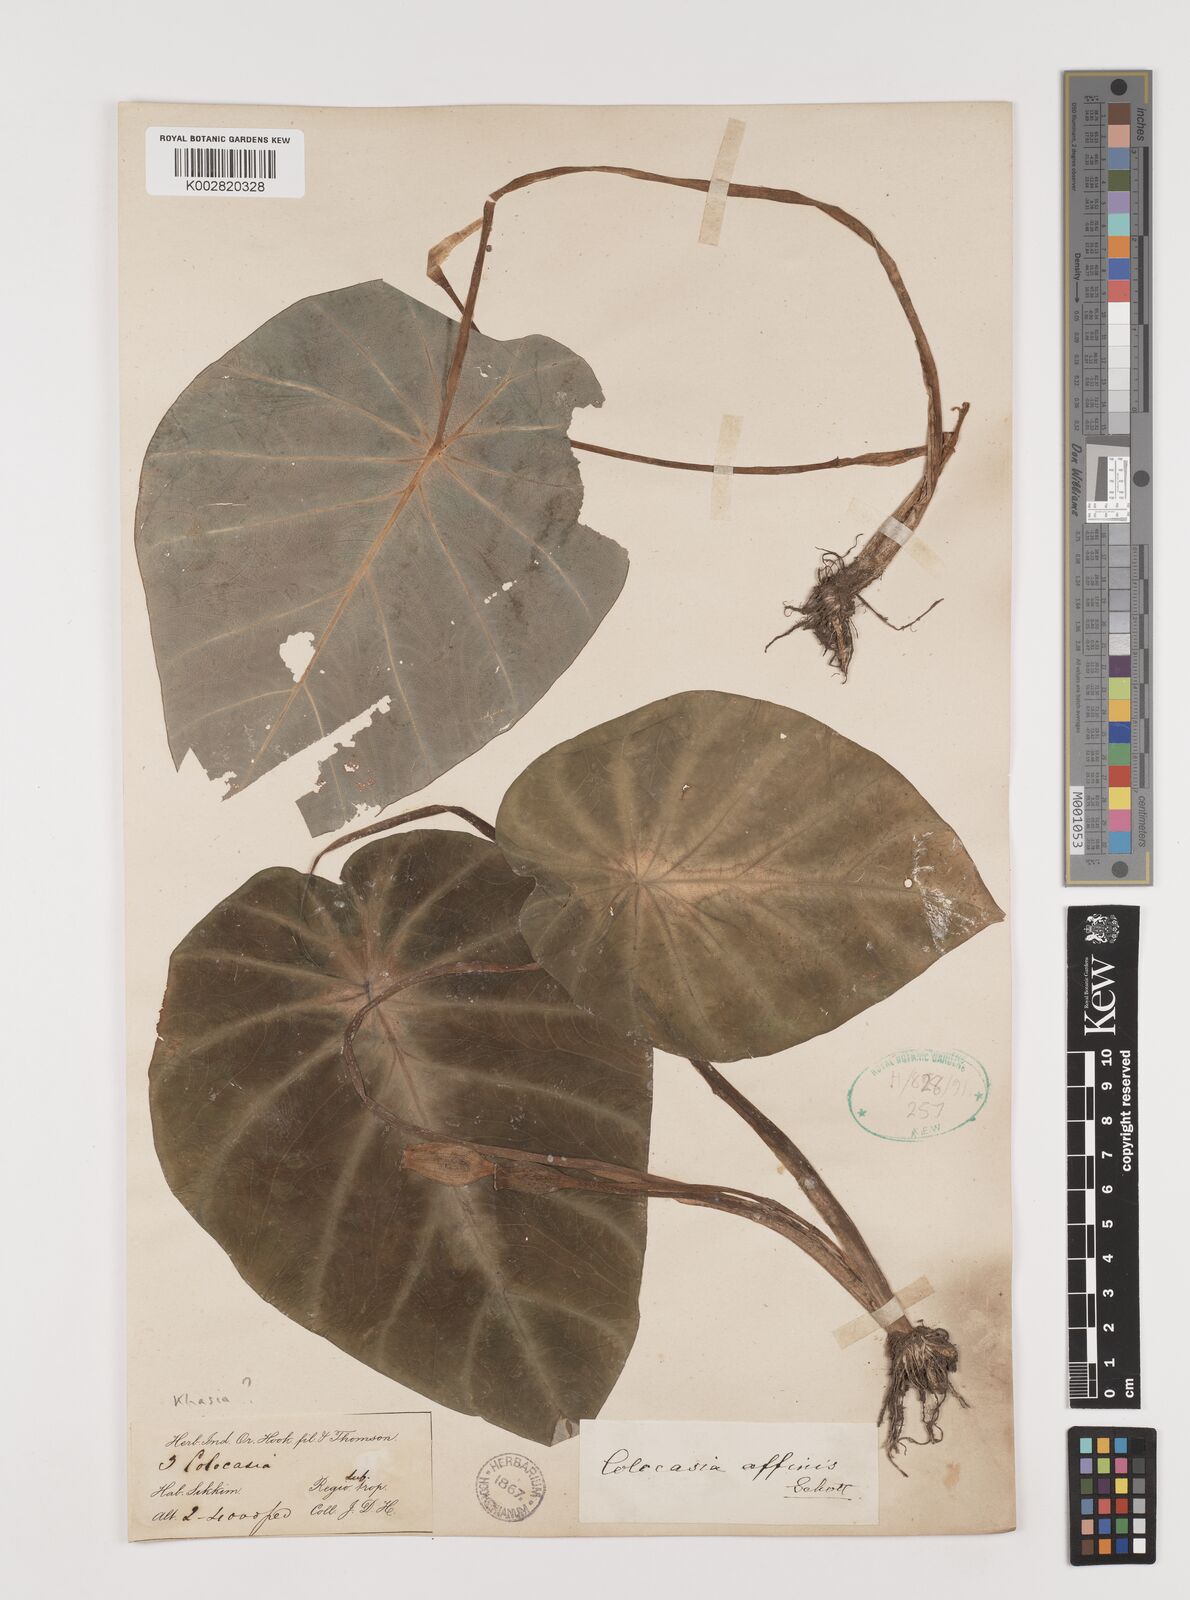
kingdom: Plantae
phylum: Tracheophyta
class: Liliopsida
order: Alismatales
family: Araceae
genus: Colocasia
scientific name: Colocasia affinis
